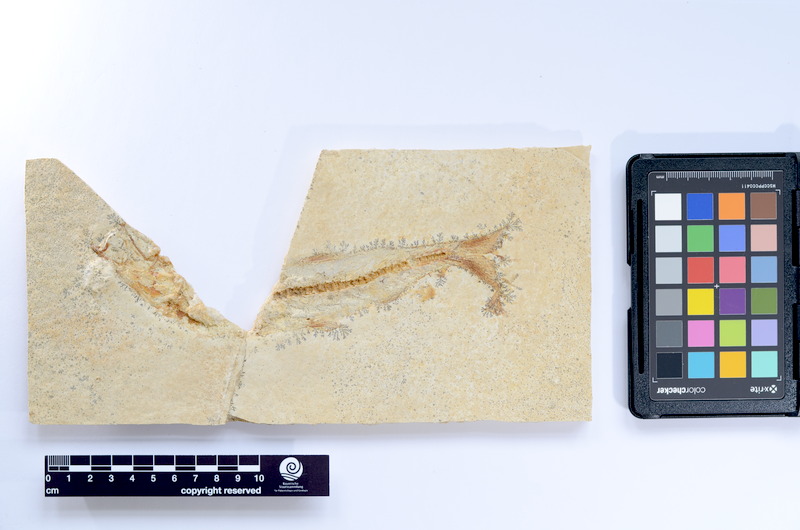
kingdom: Animalia
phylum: Chordata
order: Elopiformes
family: Anaethalionidae
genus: Anaethalion
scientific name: Anaethalion knorri
